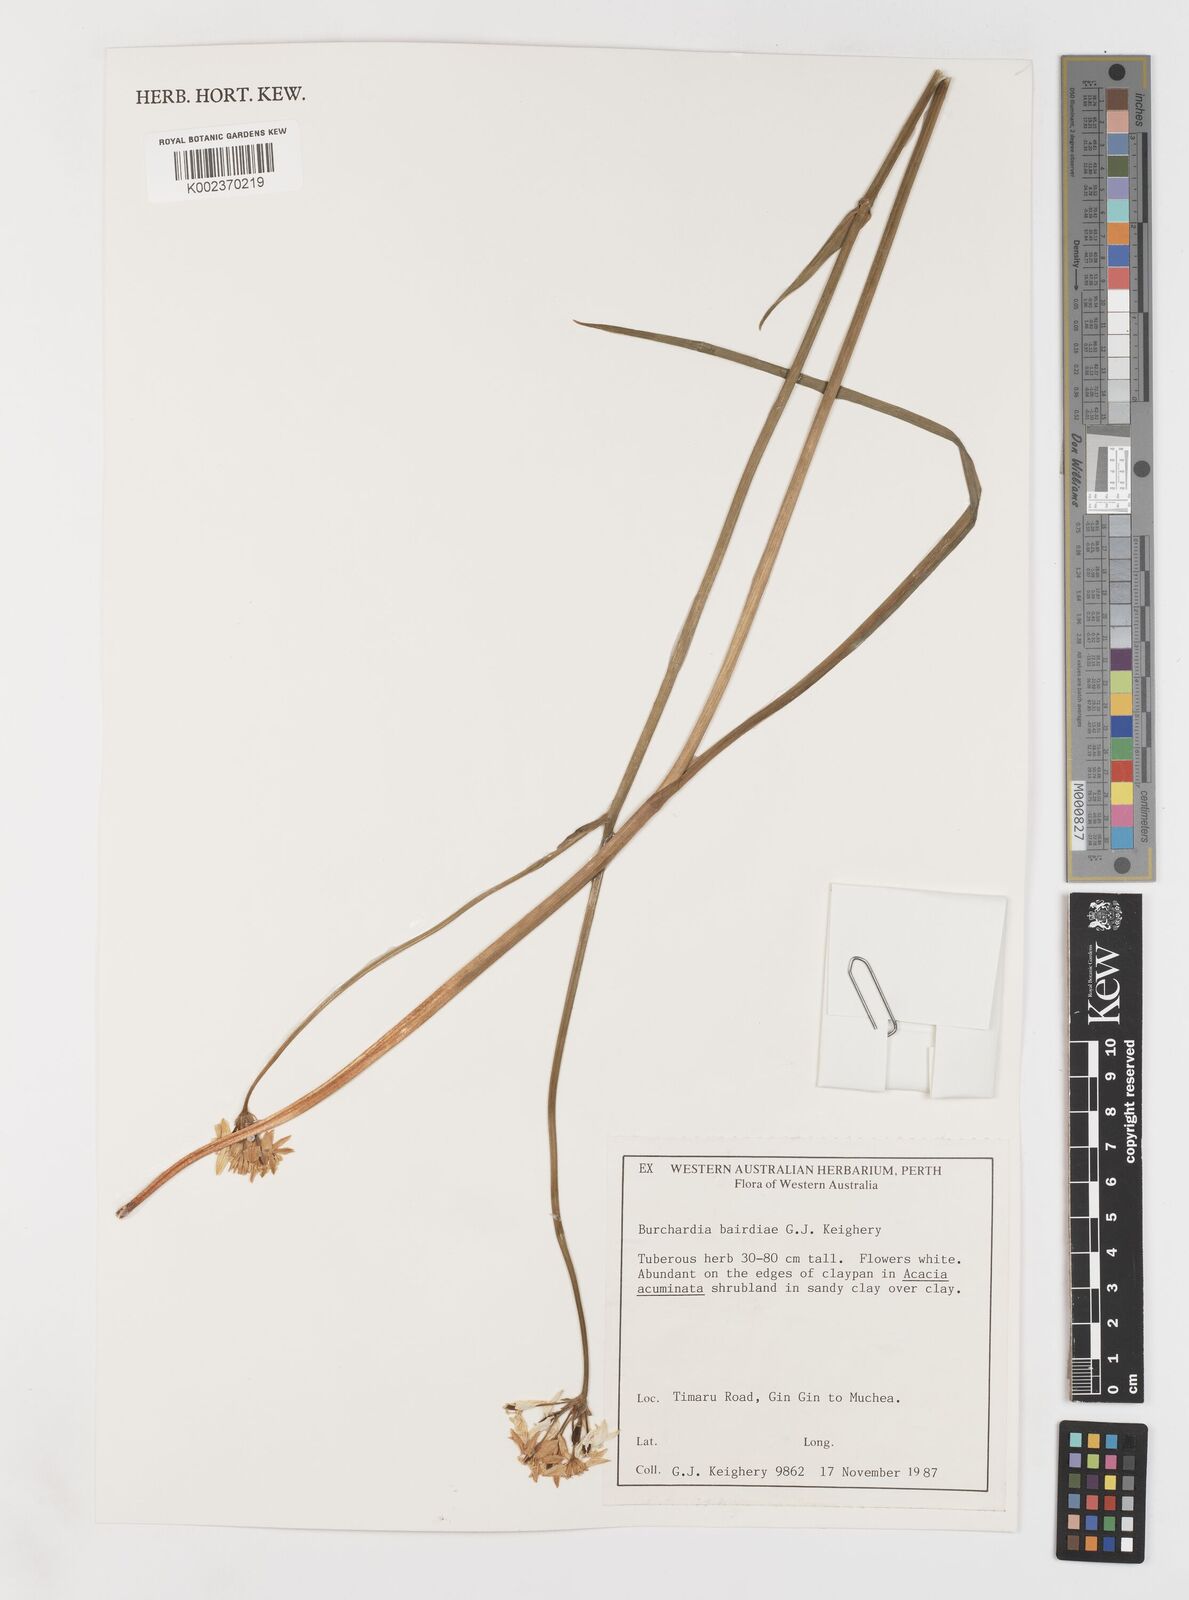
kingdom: Plantae
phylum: Tracheophyta
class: Liliopsida
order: Liliales
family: Colchicaceae
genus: Burchardia
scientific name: Burchardia bairdiae
